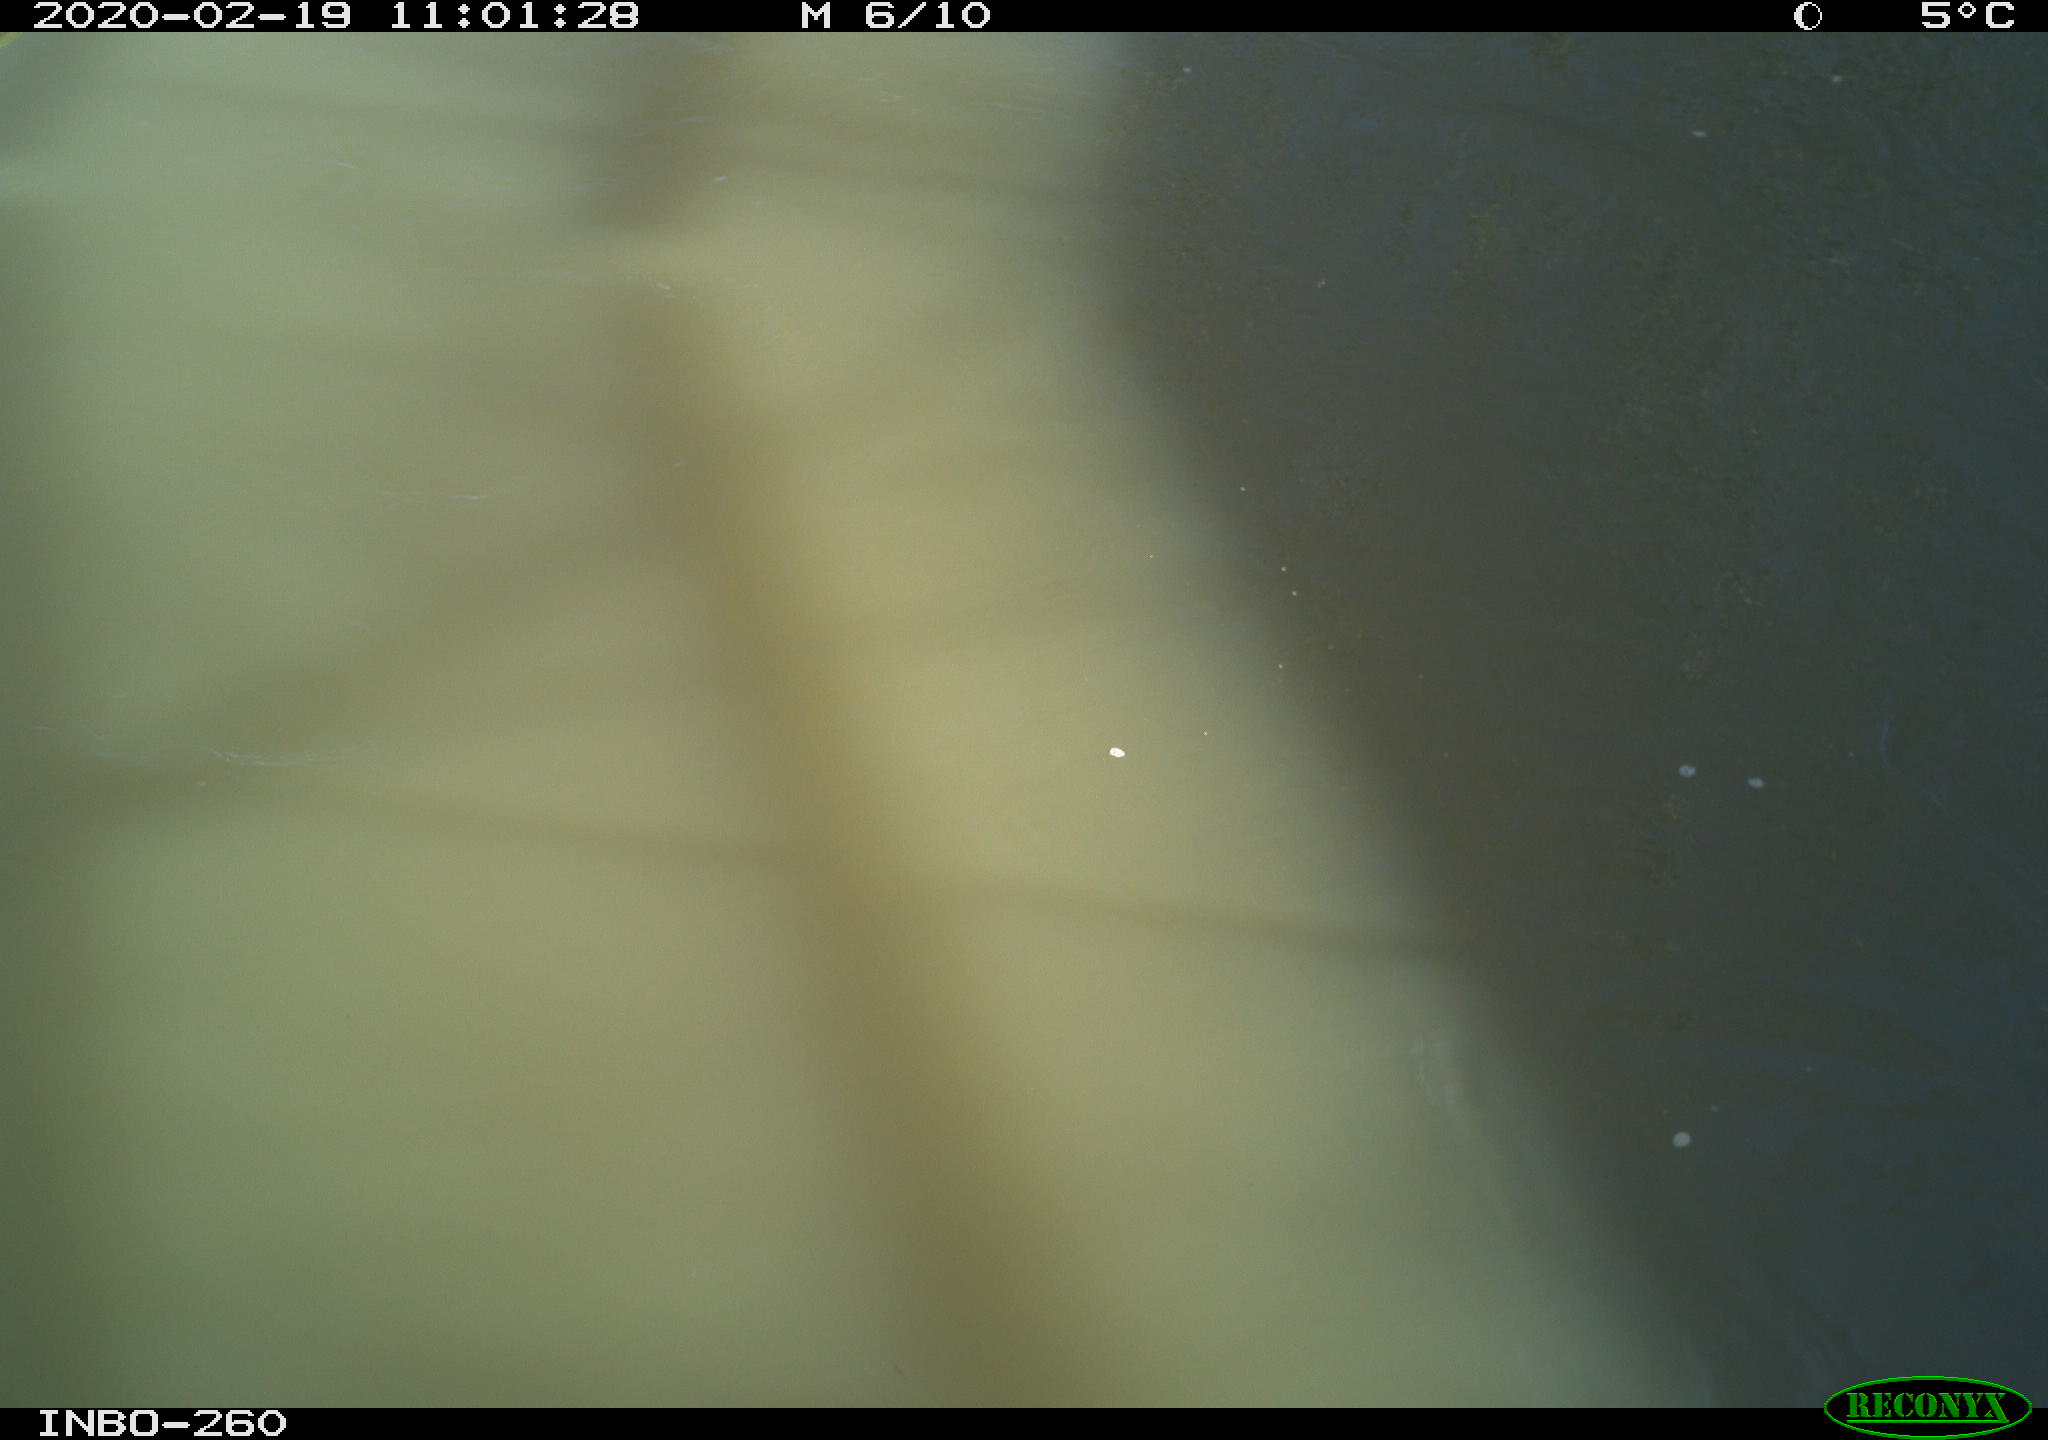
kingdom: Animalia
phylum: Chordata
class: Aves
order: Gruiformes
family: Rallidae
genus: Fulica
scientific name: Fulica atra
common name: Eurasian coot
